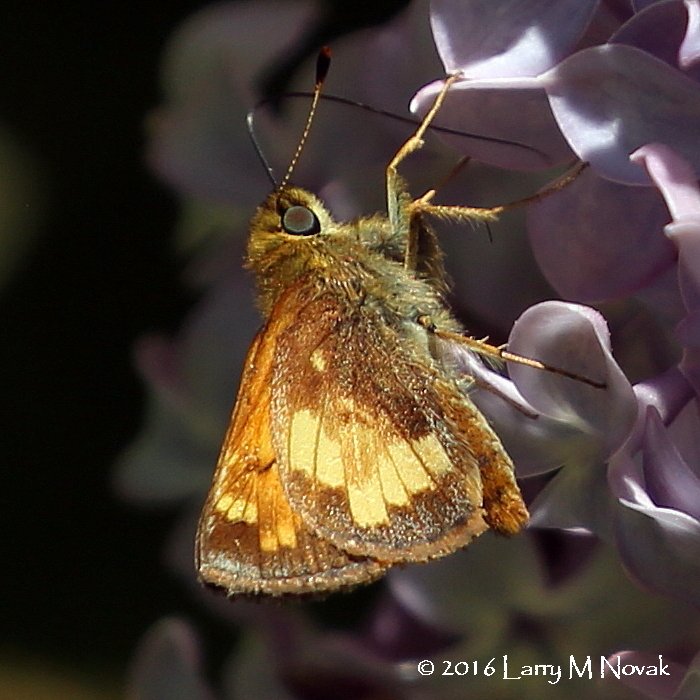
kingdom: Animalia
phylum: Arthropoda
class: Insecta
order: Lepidoptera
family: Hesperiidae
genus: Lon
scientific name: Lon hobomok
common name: Hobomok Skipper
